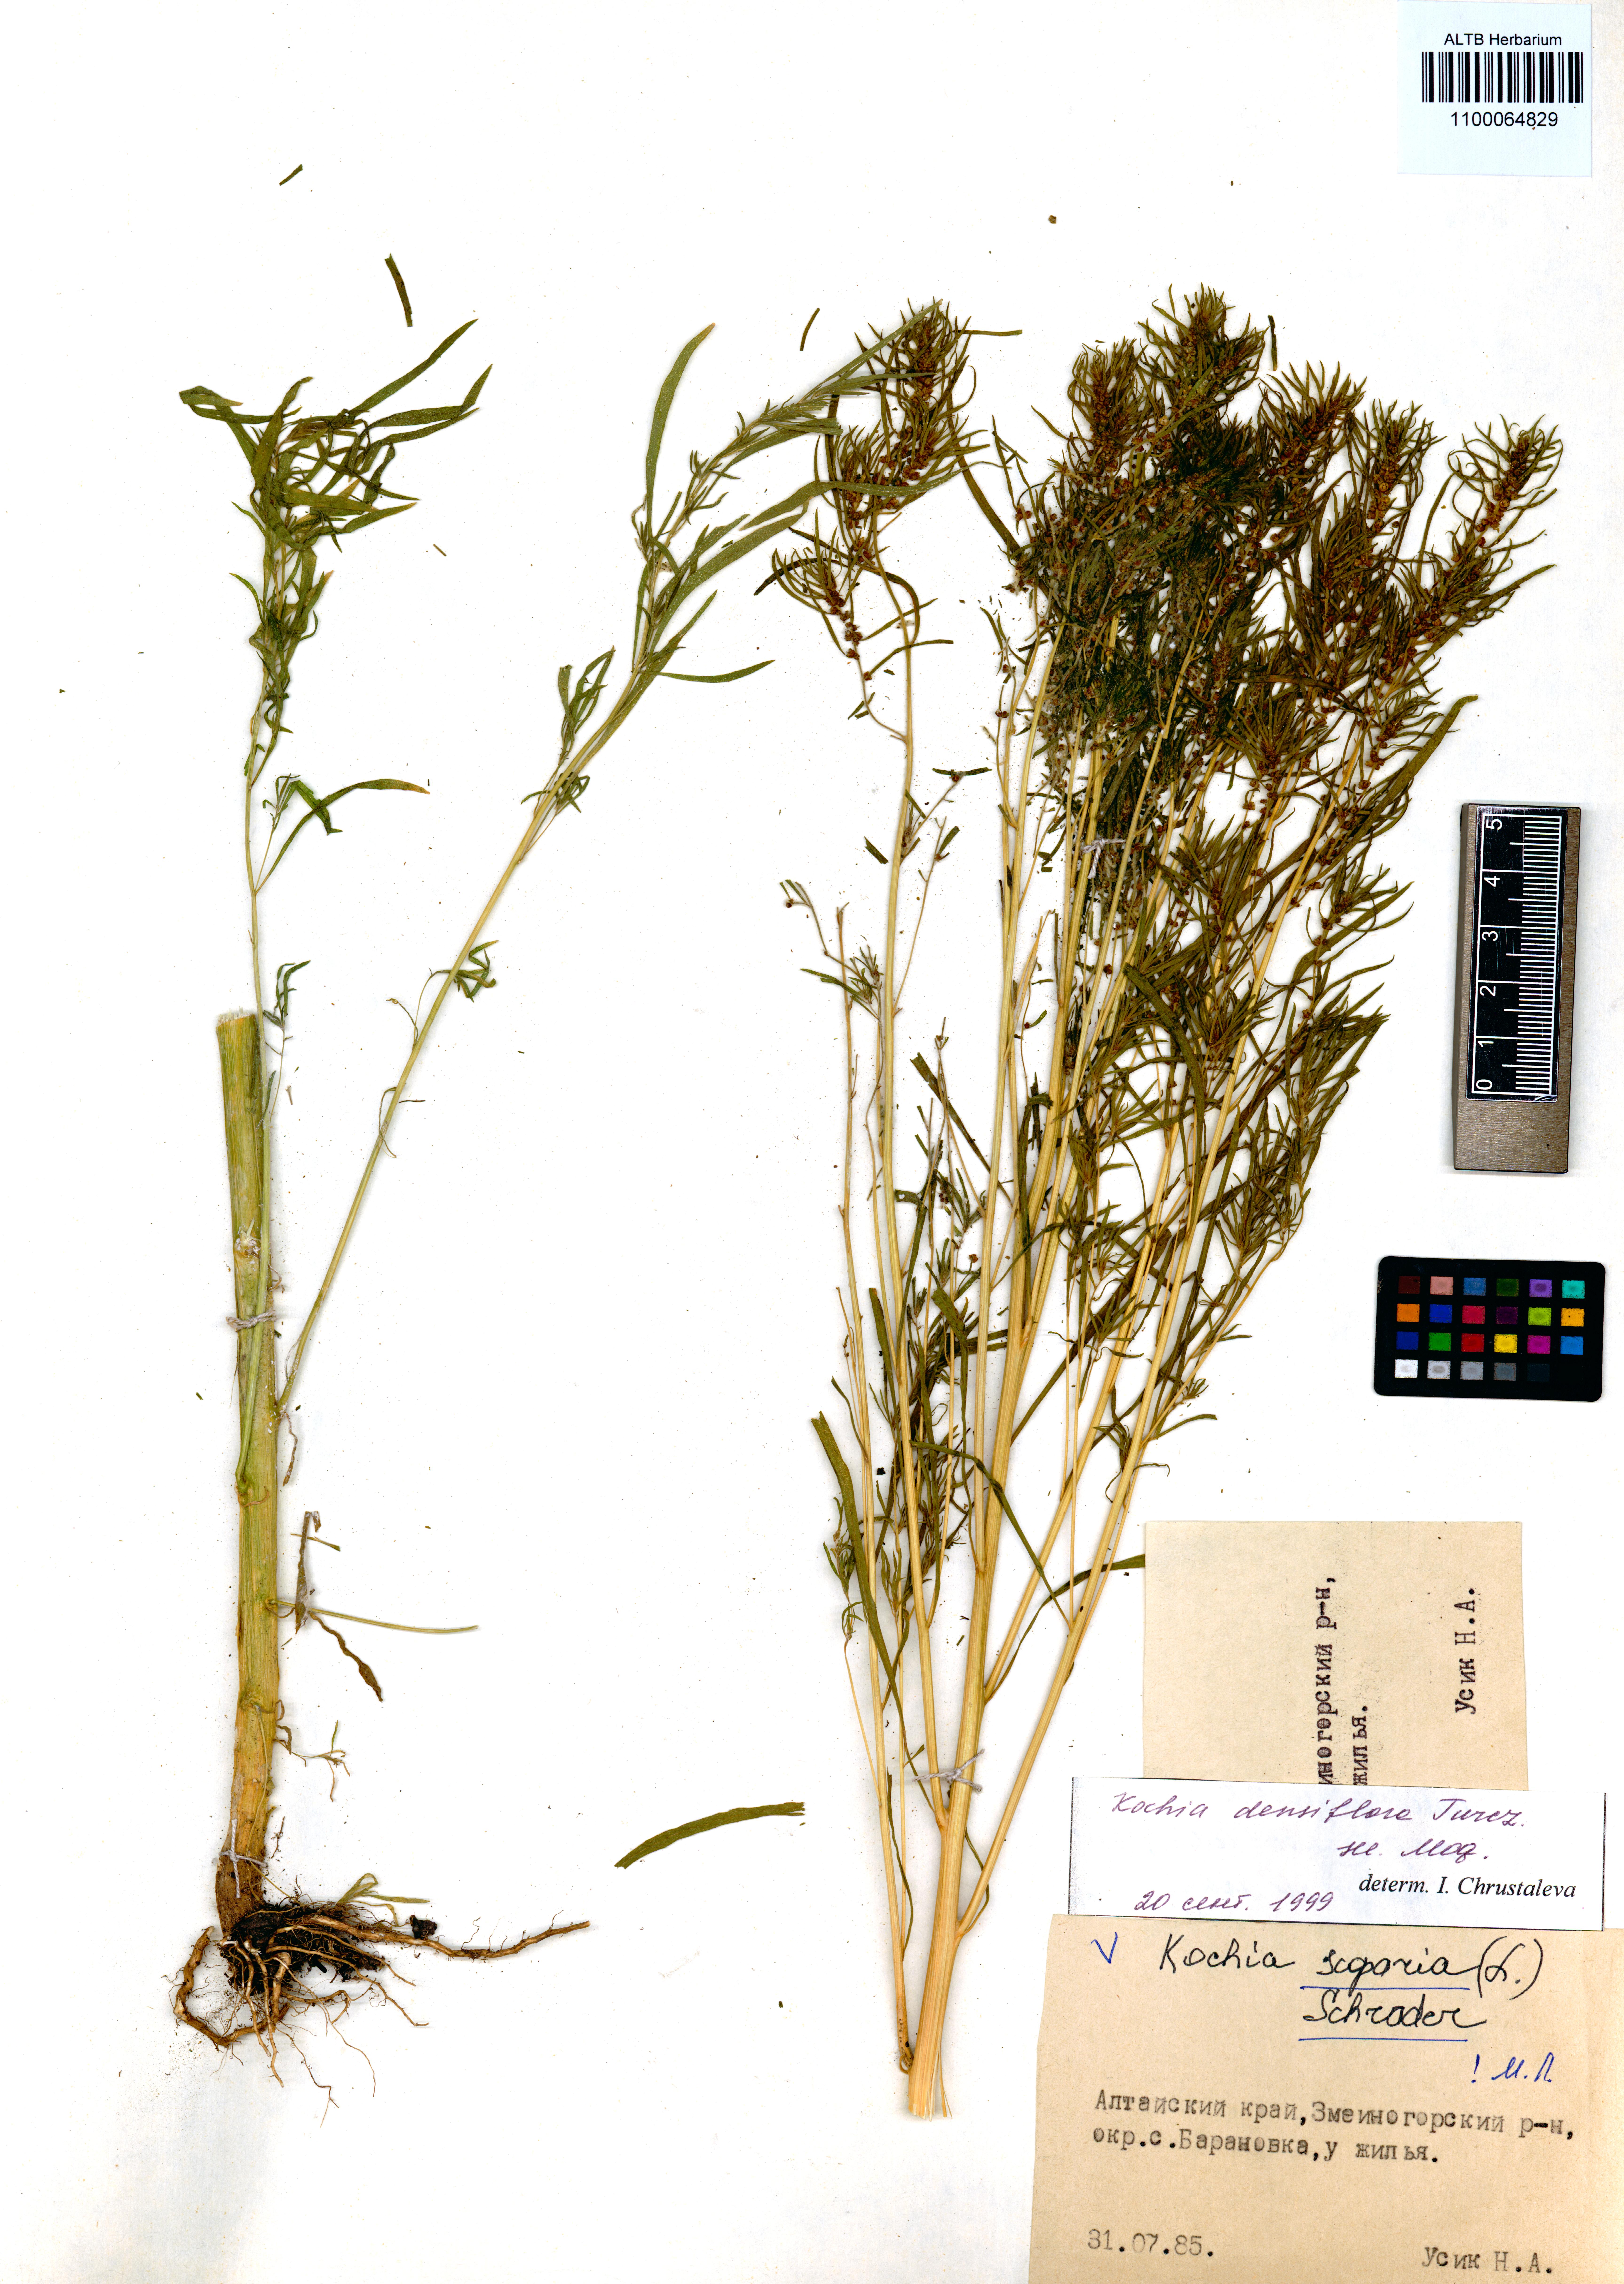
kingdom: Plantae
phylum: Tracheophyta
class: Magnoliopsida
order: Caryophyllales
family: Amaranthaceae
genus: Bassia
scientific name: Bassia scoparia
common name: Belvedere
